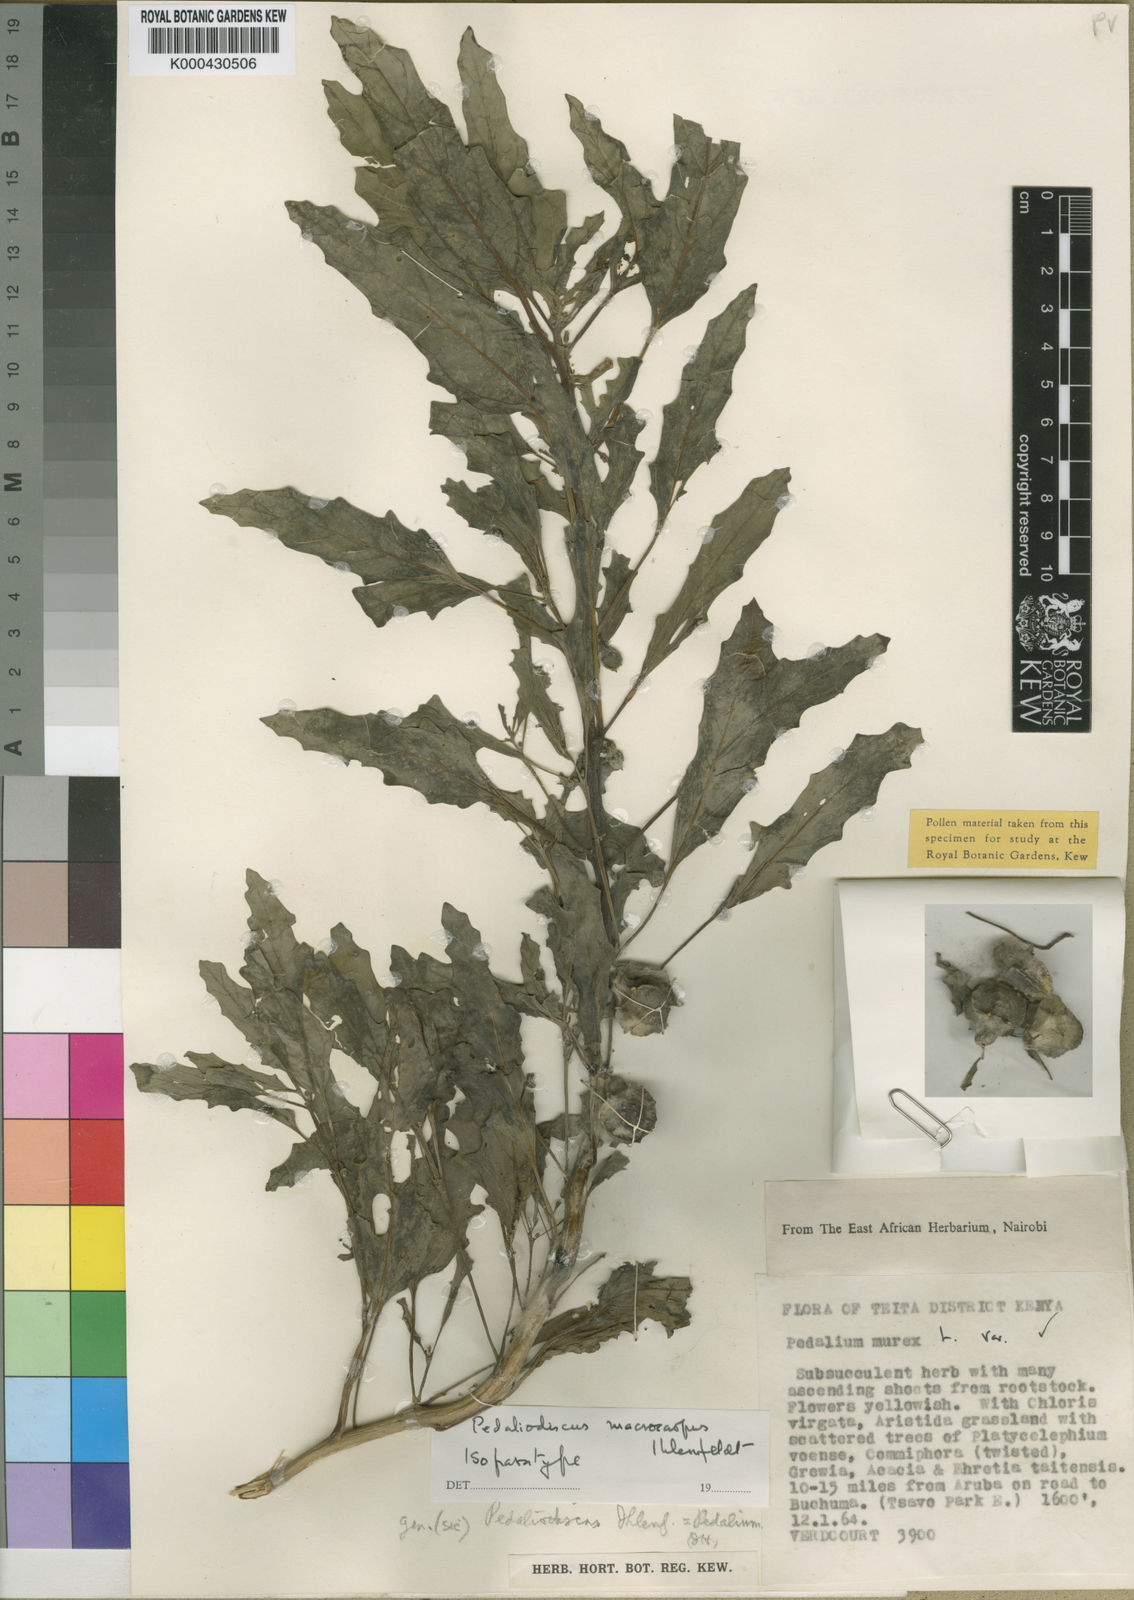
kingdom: Plantae
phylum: Tracheophyta
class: Magnoliopsida
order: Lamiales
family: Pedaliaceae
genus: Pedaliodiscus
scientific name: Pedaliodiscus macrocarpus
